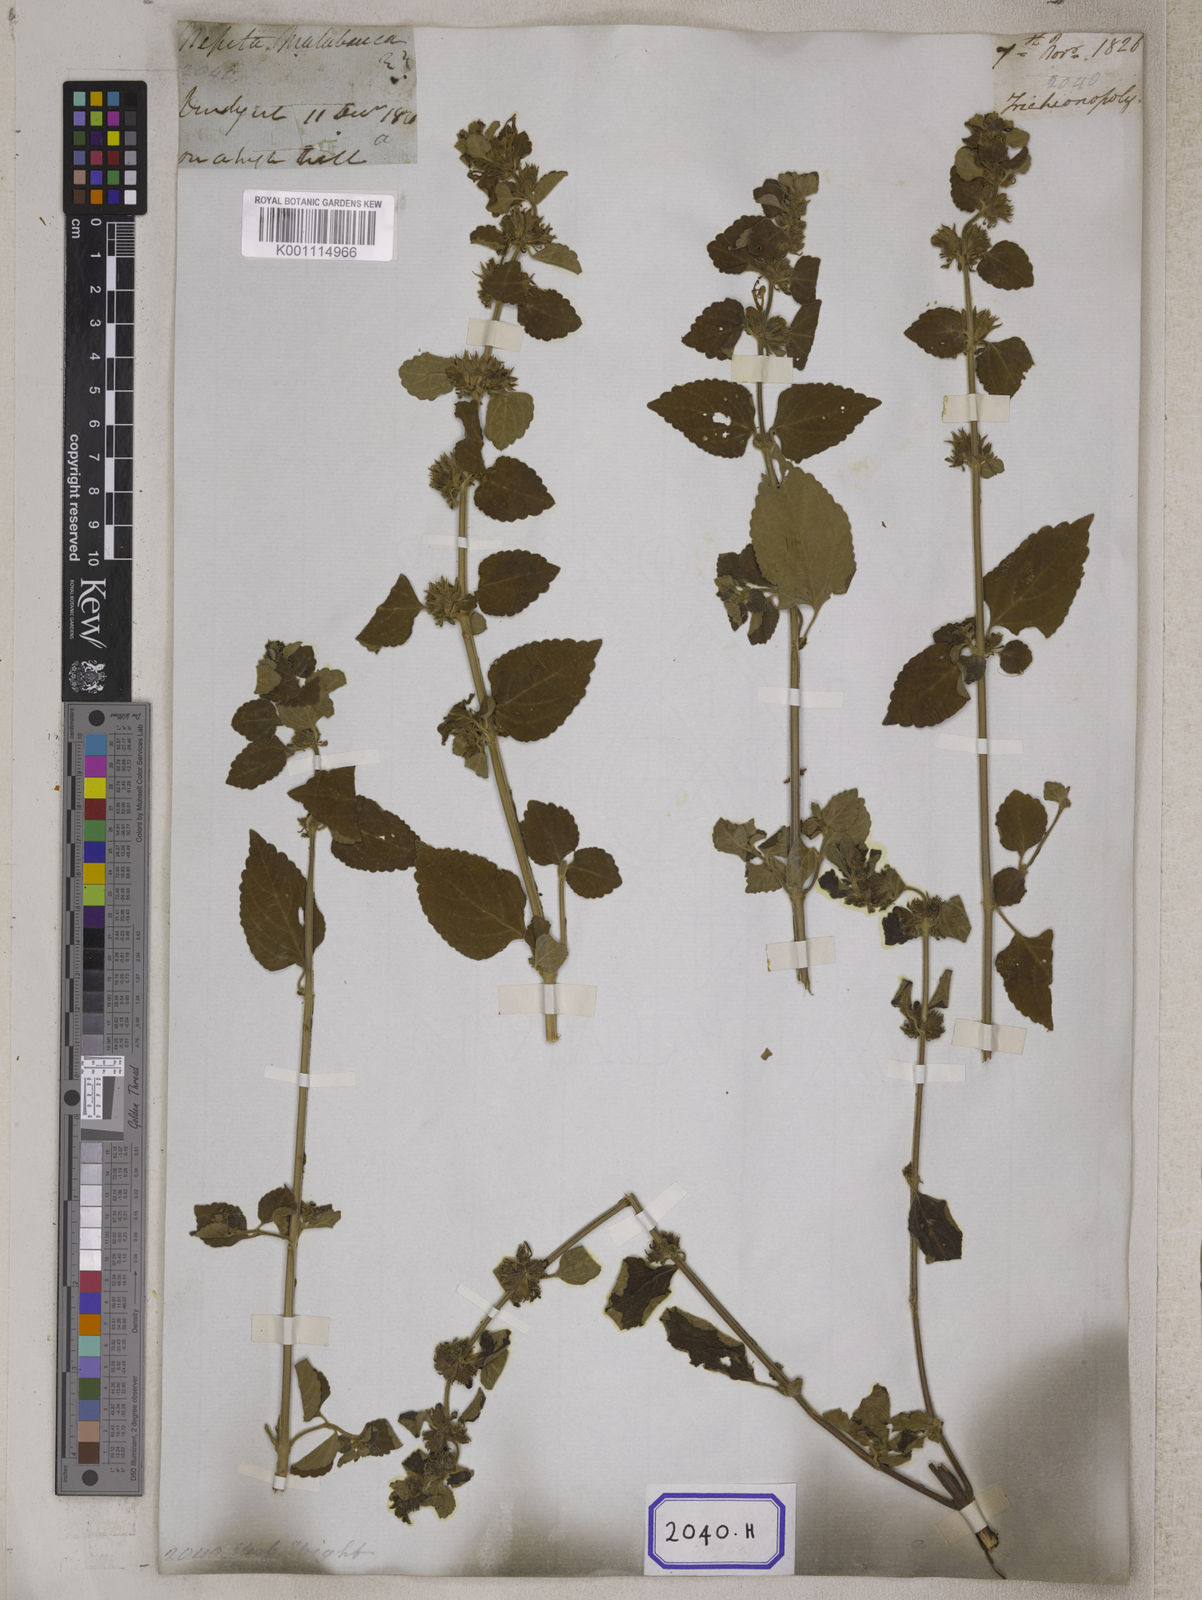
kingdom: Plantae
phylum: Tracheophyta
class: Magnoliopsida
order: Lamiales
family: Lamiaceae
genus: Anisomeles
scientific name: Anisomeles
